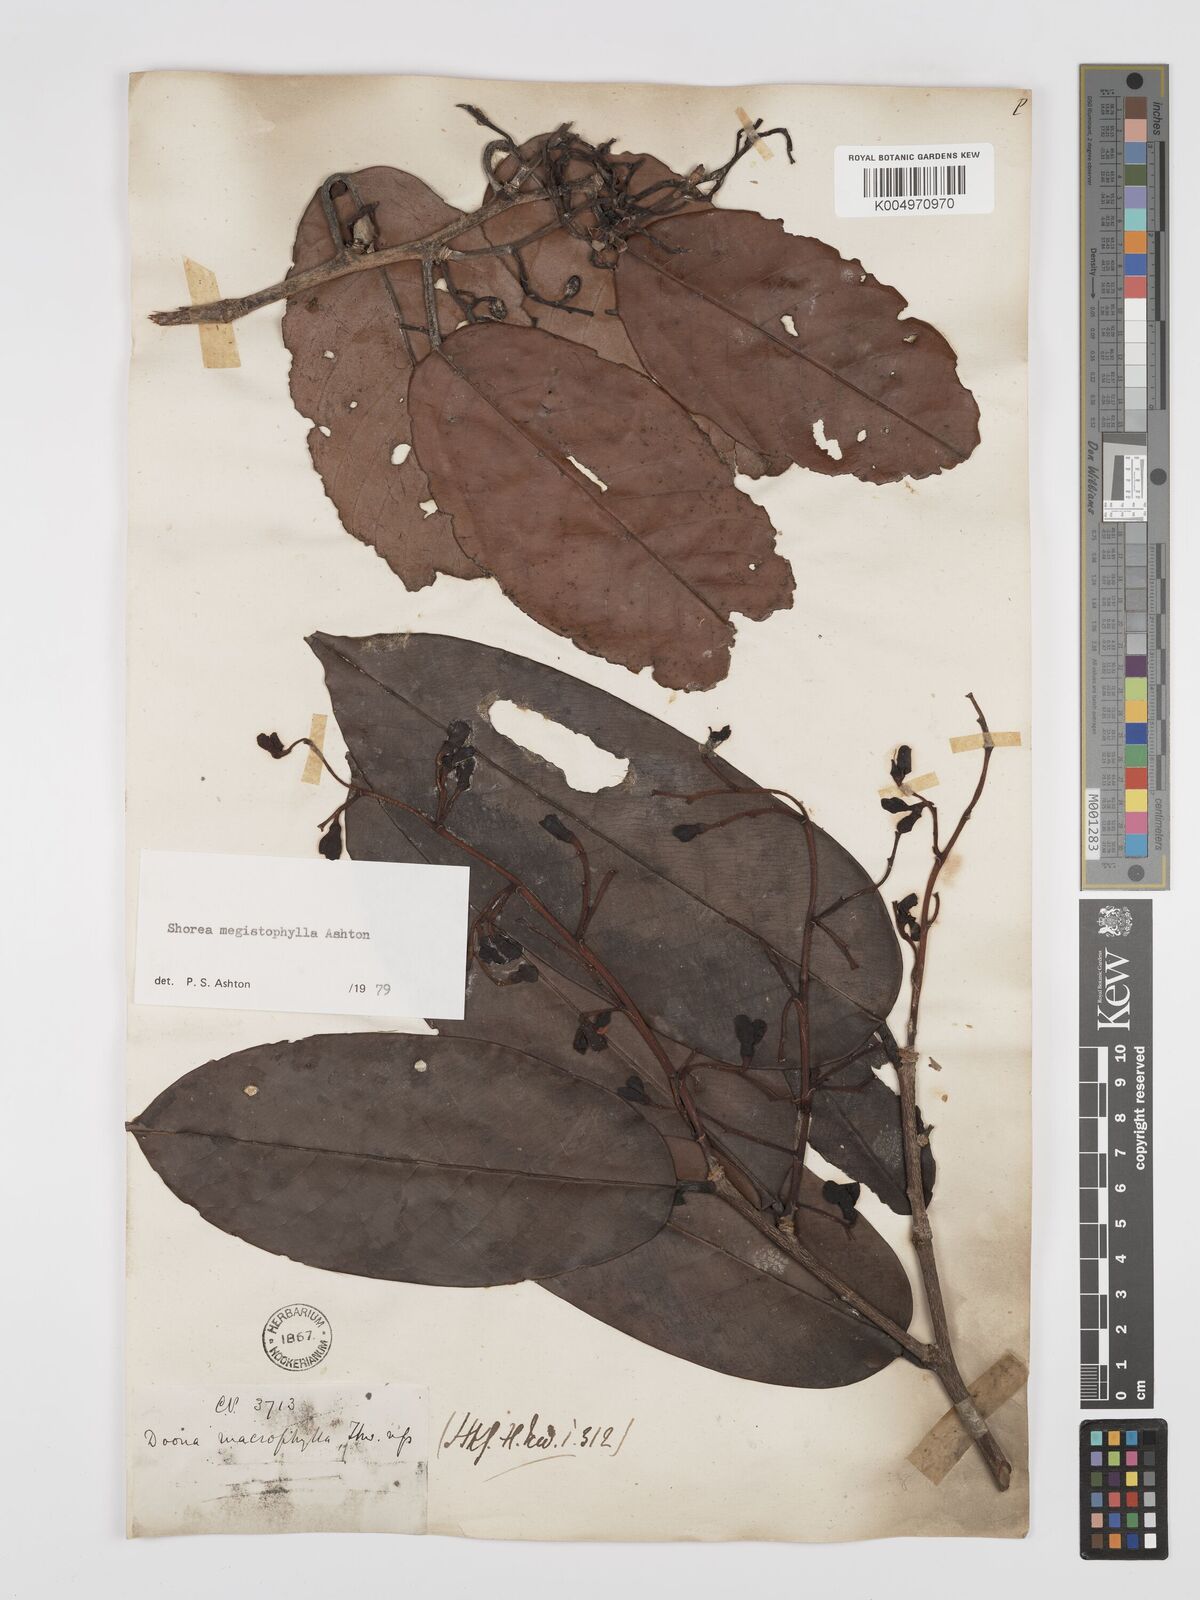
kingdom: Plantae
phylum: Tracheophyta
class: Magnoliopsida
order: Malvales
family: Dipterocarpaceae
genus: Doona
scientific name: Doona macrophylla
